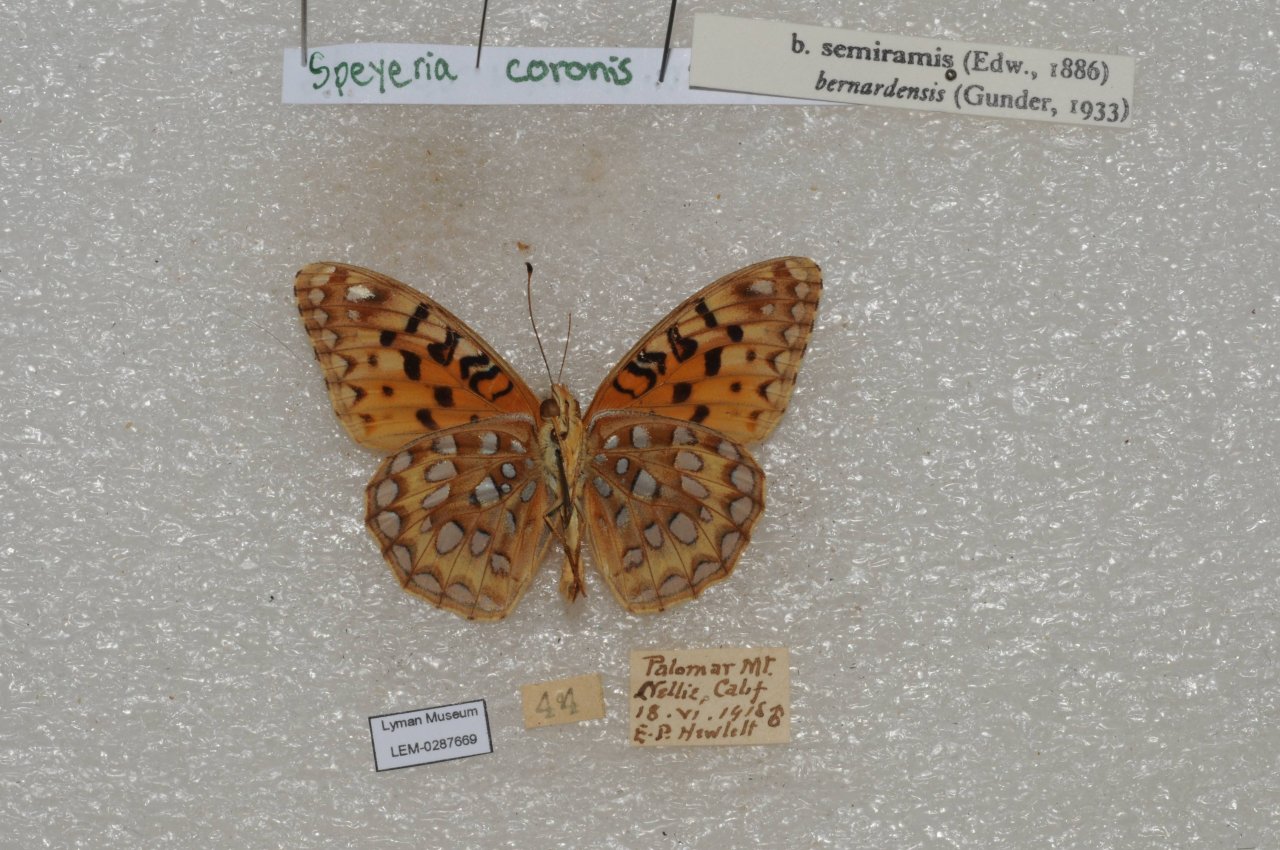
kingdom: Animalia
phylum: Arthropoda
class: Insecta
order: Lepidoptera
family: Nymphalidae
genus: Speyeria
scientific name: Speyeria coronis
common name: Coronis Fritillary
